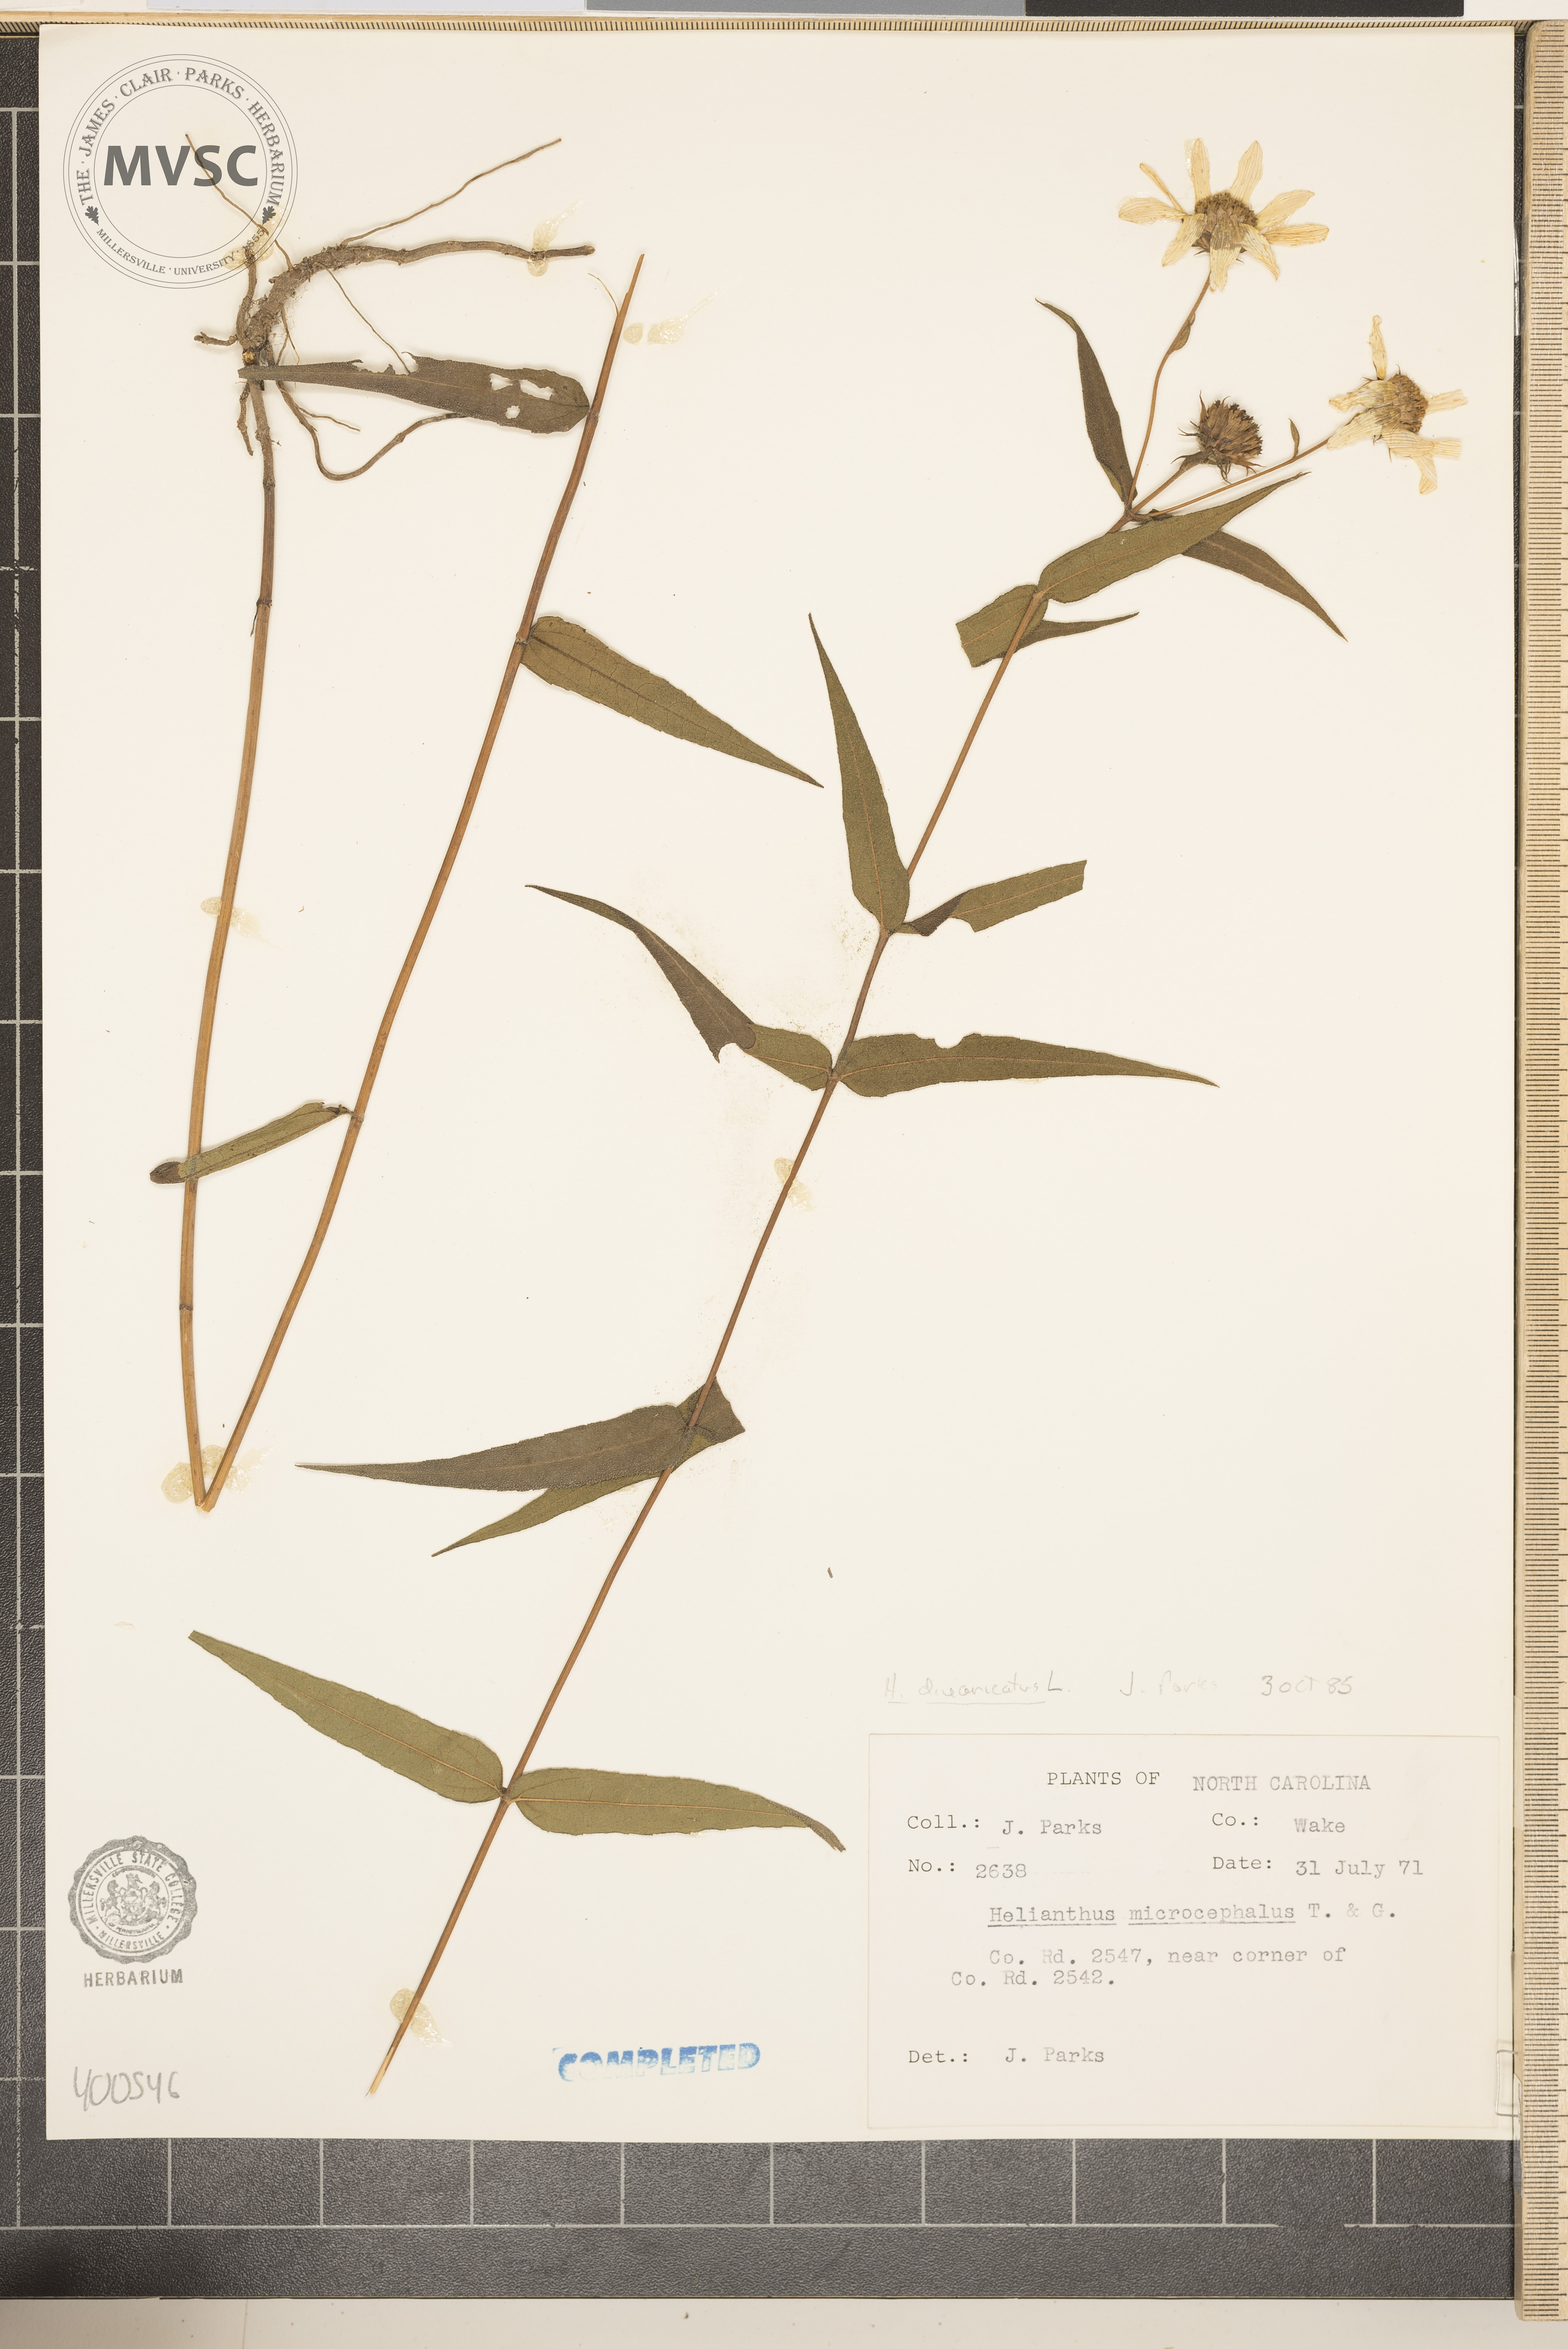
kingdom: Plantae
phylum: Tracheophyta
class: Magnoliopsida
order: Asterales
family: Asteraceae
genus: Helianthus
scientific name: Helianthus divaricatus
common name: Divergent sunflower
